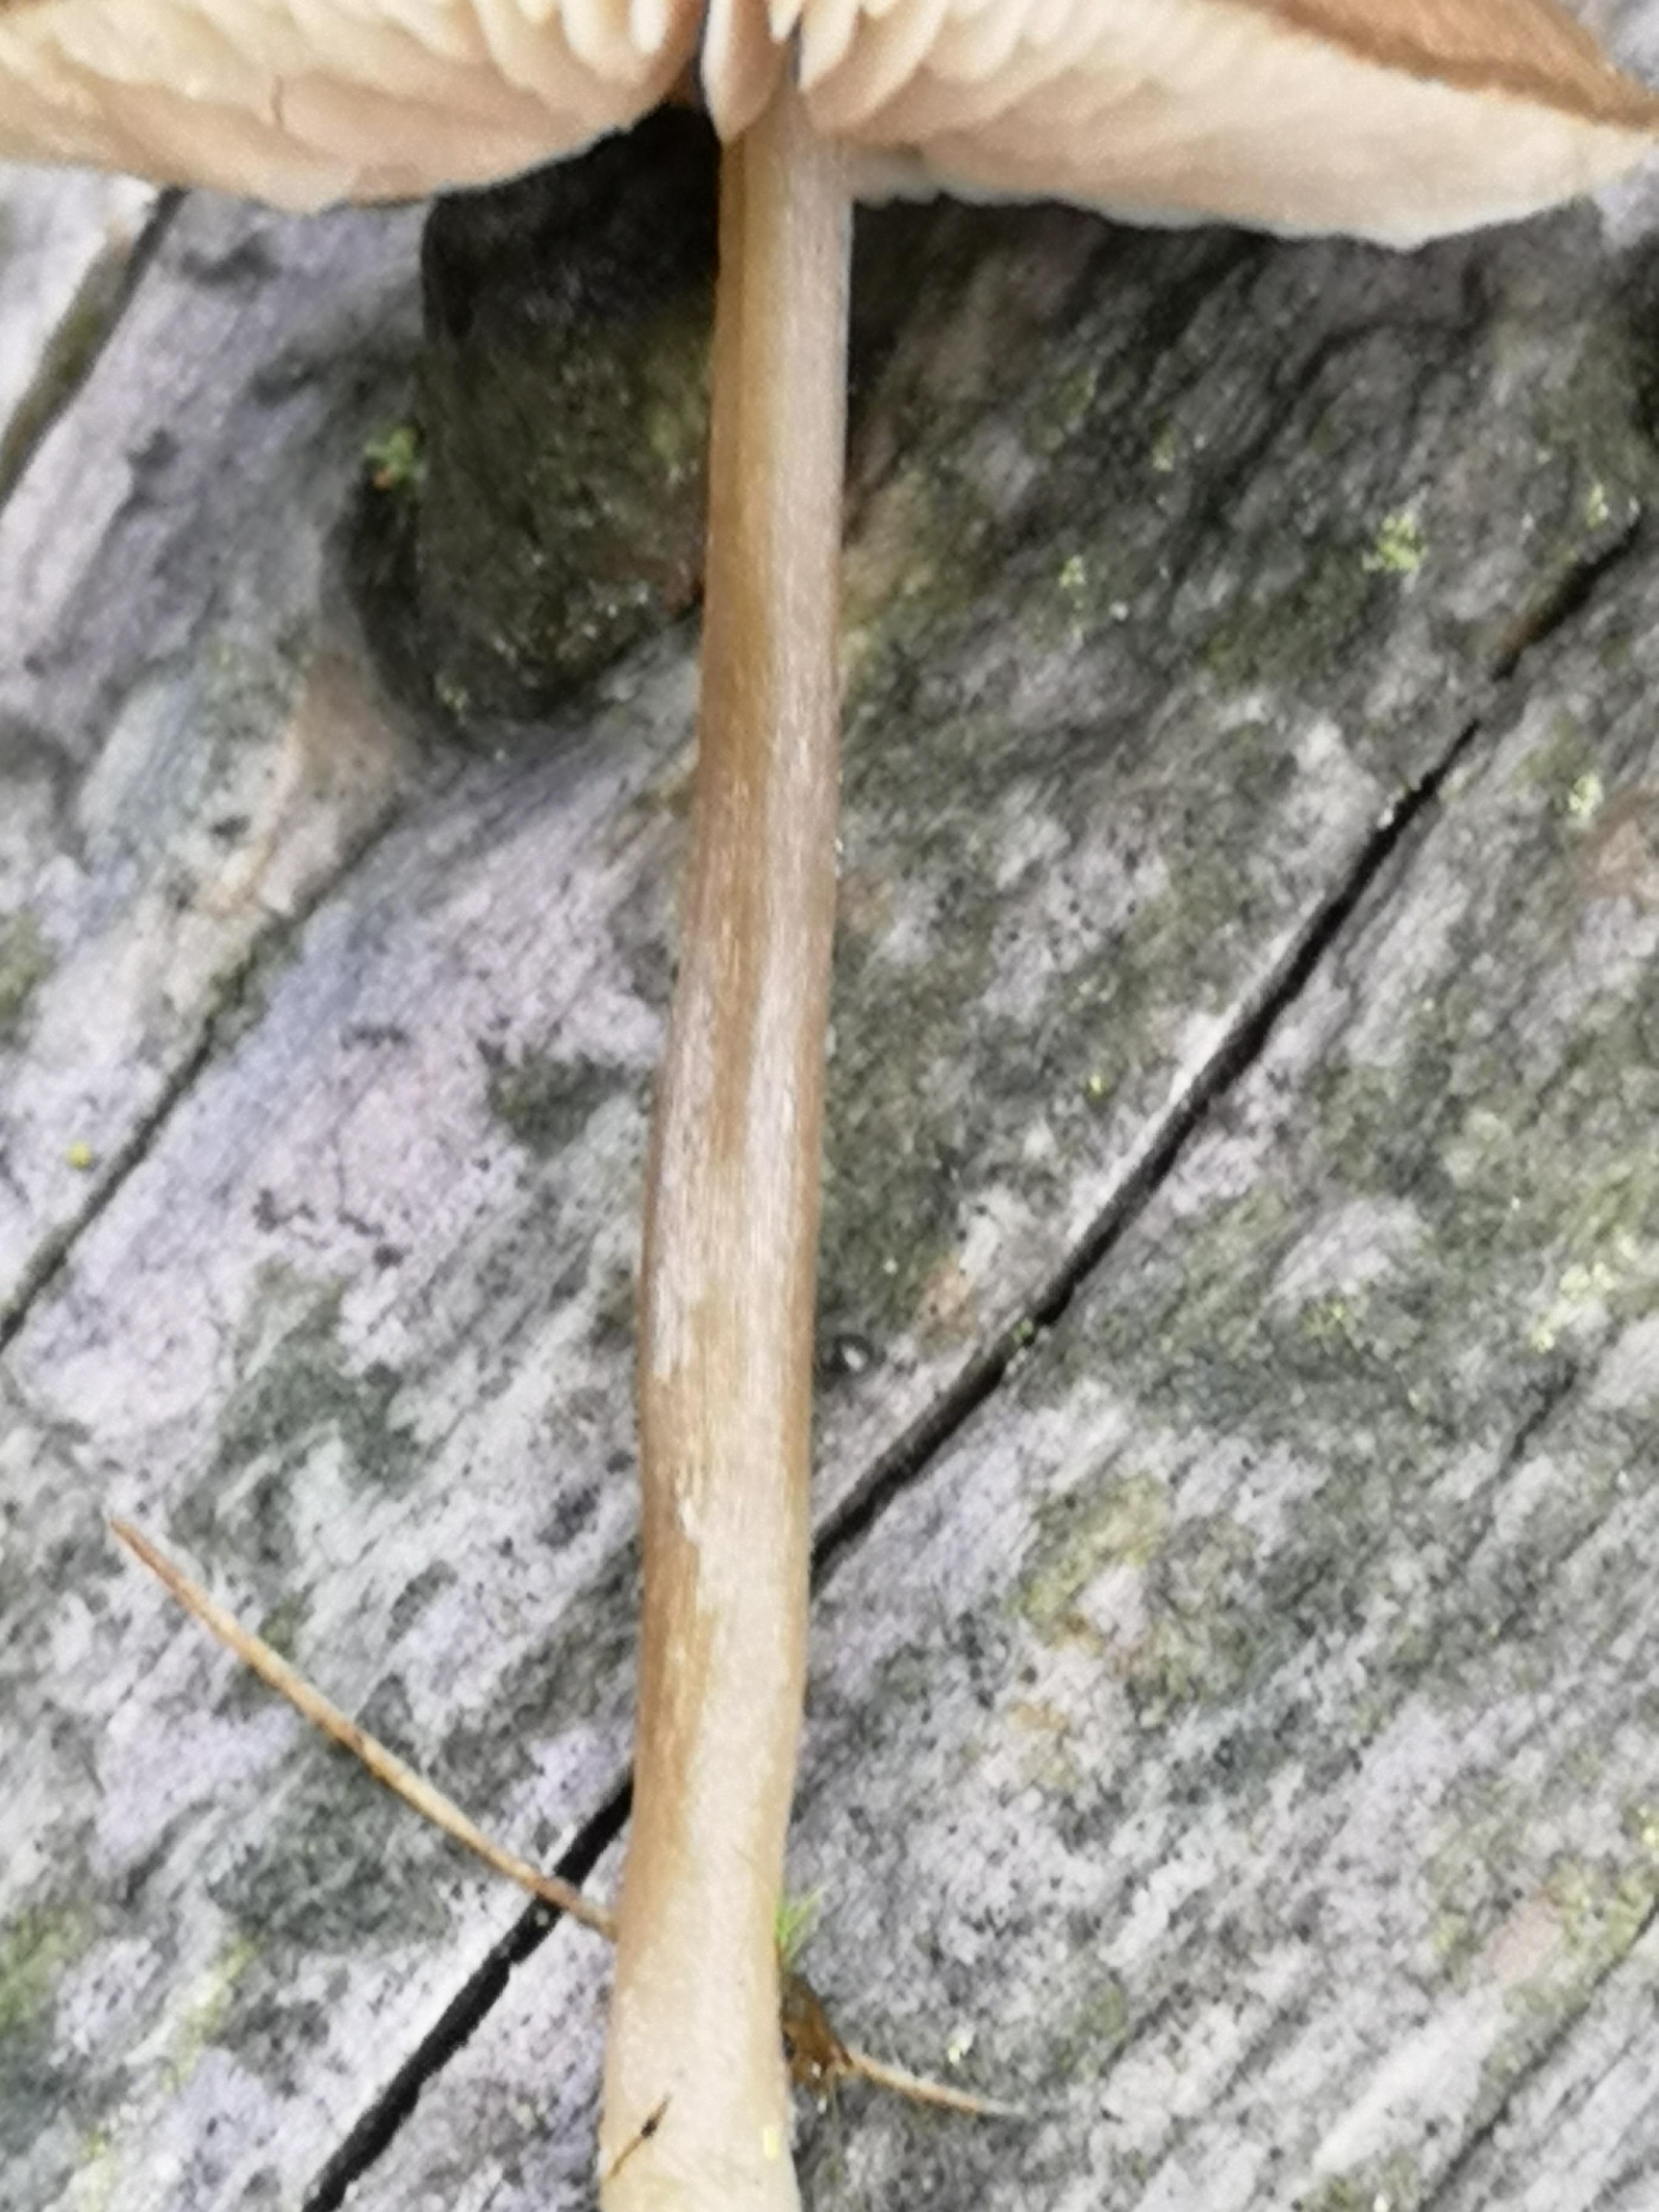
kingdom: Fungi
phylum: Basidiomycota
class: Agaricomycetes
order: Agaricales
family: Entolomataceae
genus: Entoloma
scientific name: Entoloma
